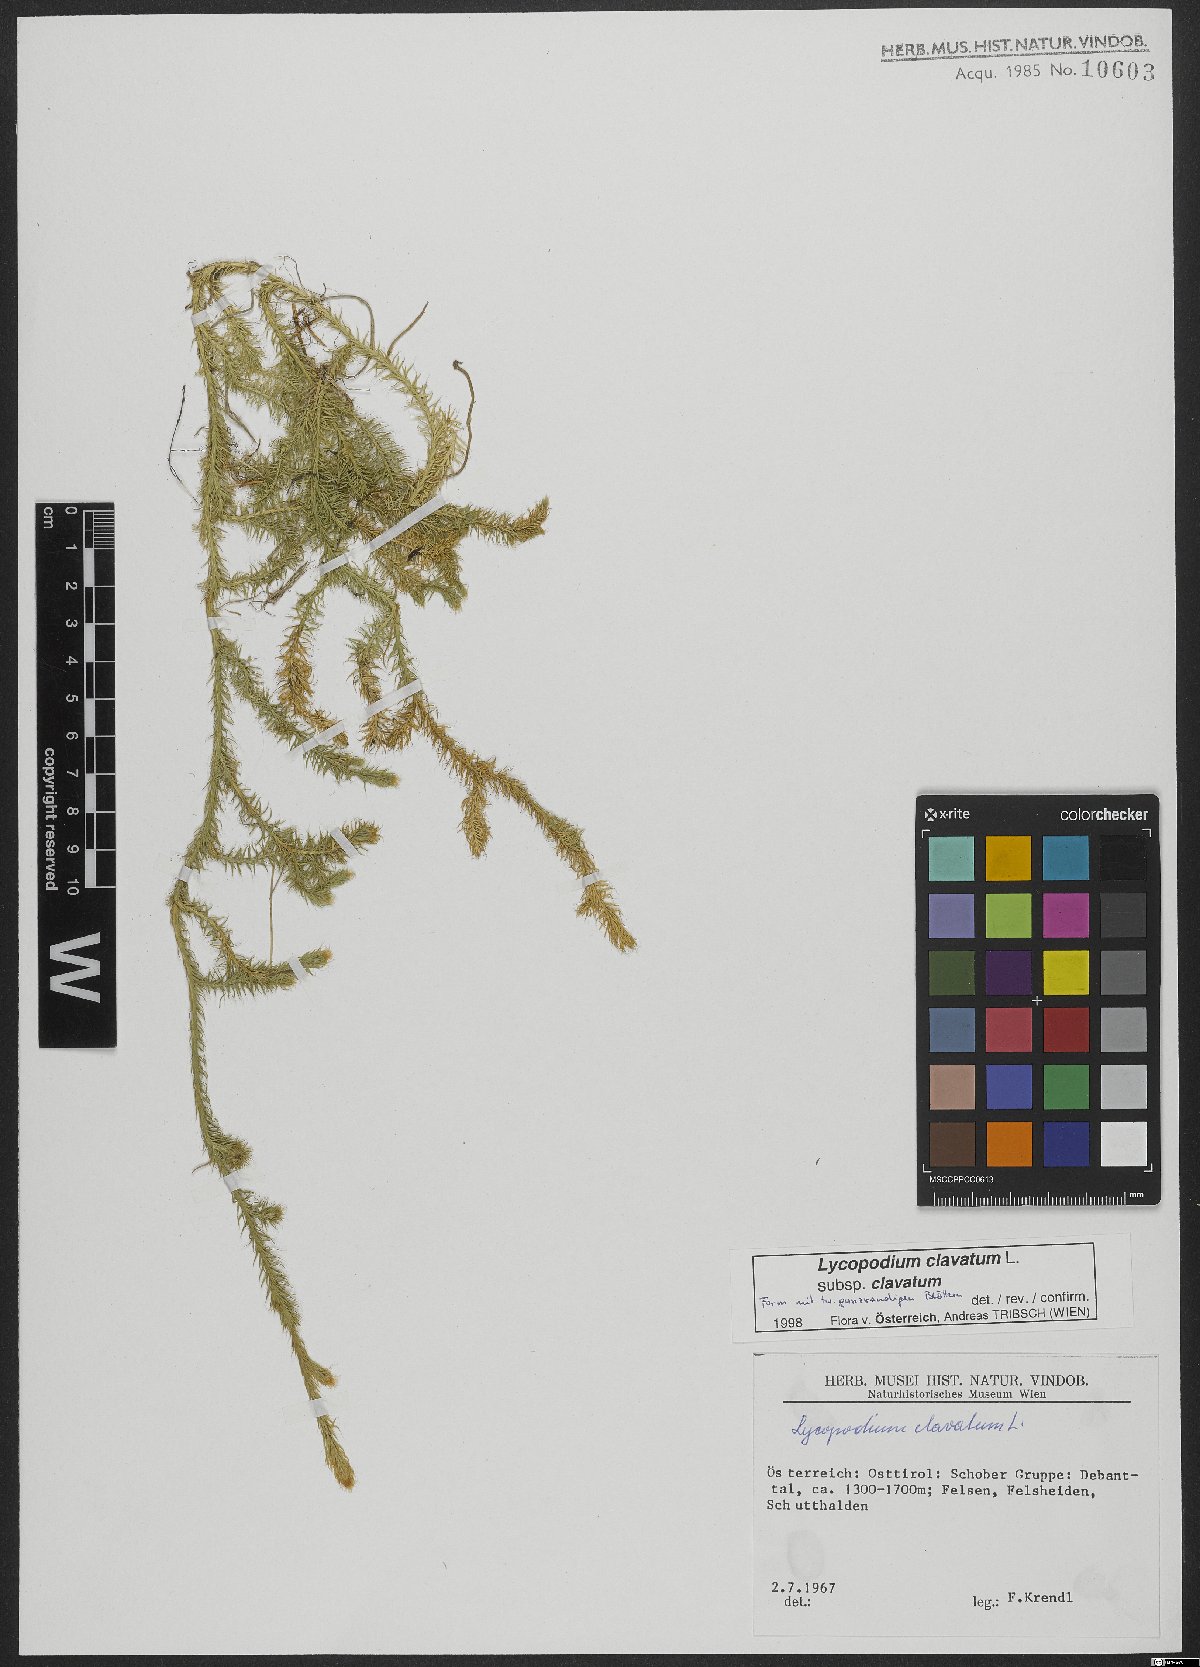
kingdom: Plantae
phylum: Tracheophyta
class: Lycopodiopsida
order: Lycopodiales
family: Lycopodiaceae
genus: Lycopodium
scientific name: Lycopodium clavatum
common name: Stag's-horn clubmoss
